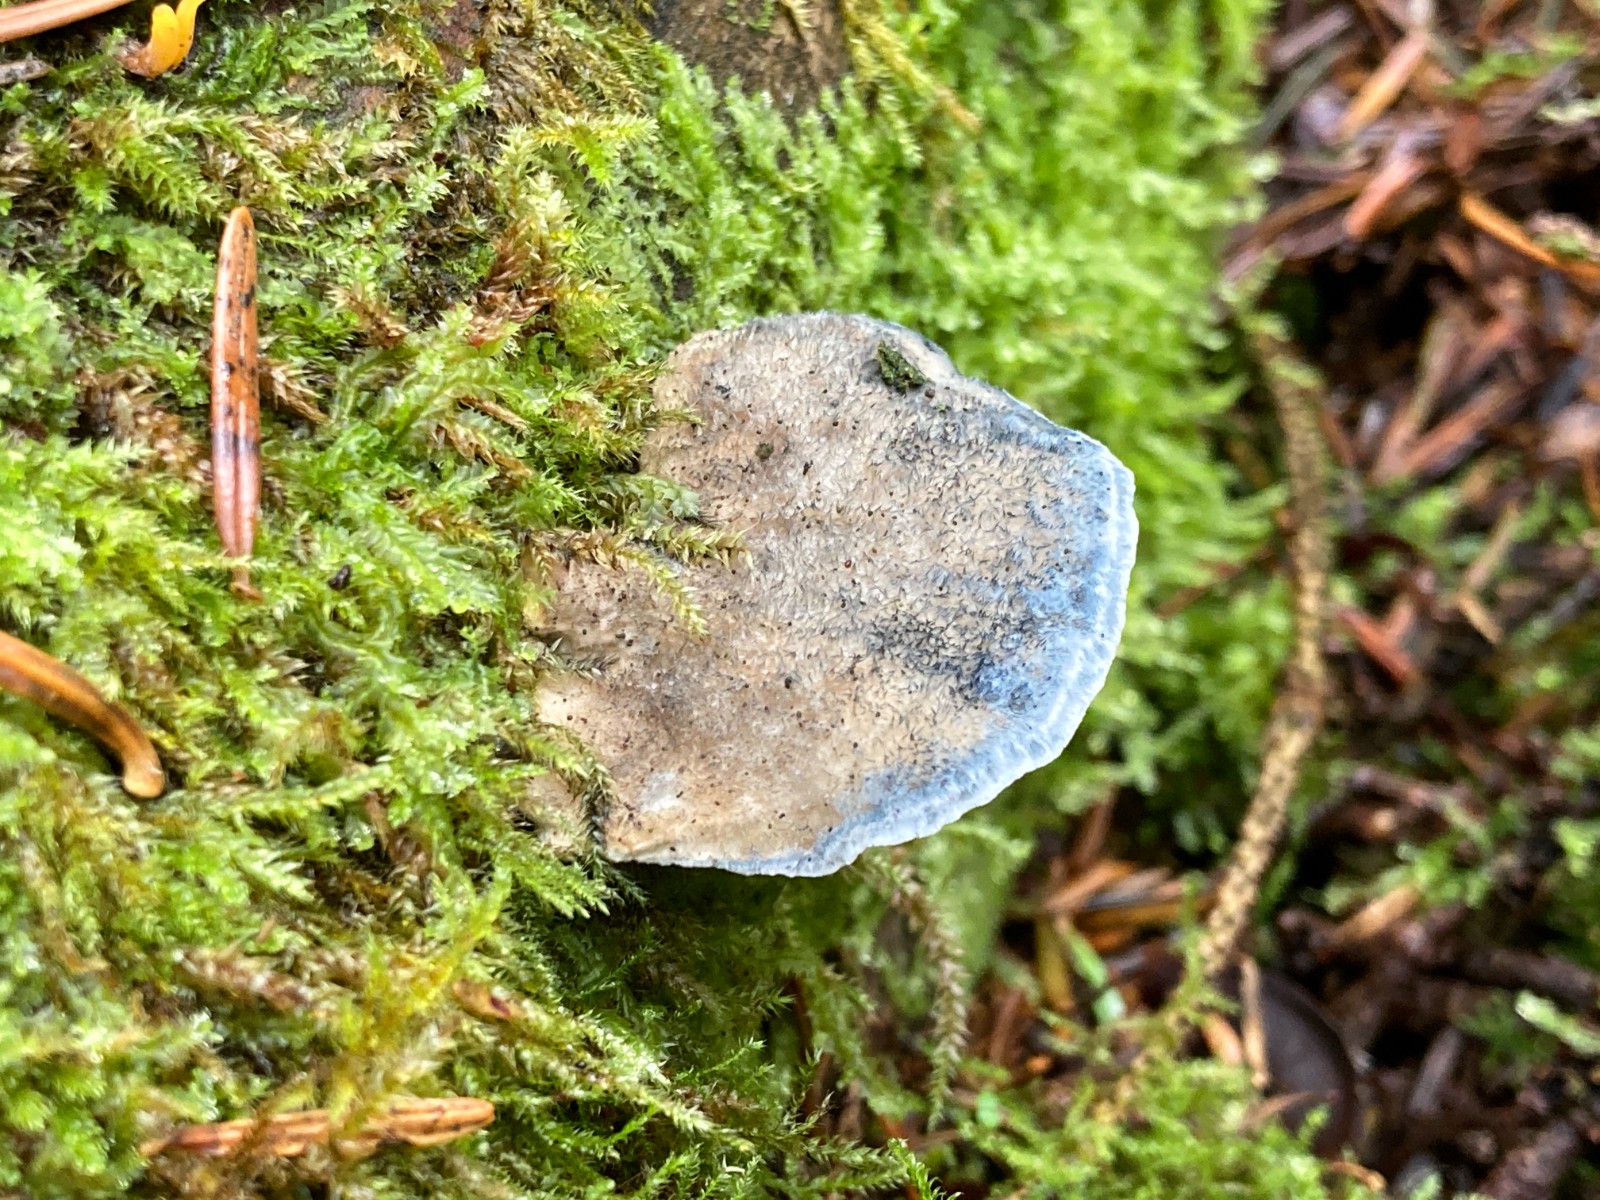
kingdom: Fungi
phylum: Basidiomycota
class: Agaricomycetes
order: Polyporales
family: Polyporaceae
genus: Cyanosporus
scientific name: Cyanosporus caesius
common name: blålig kødporesvamp
